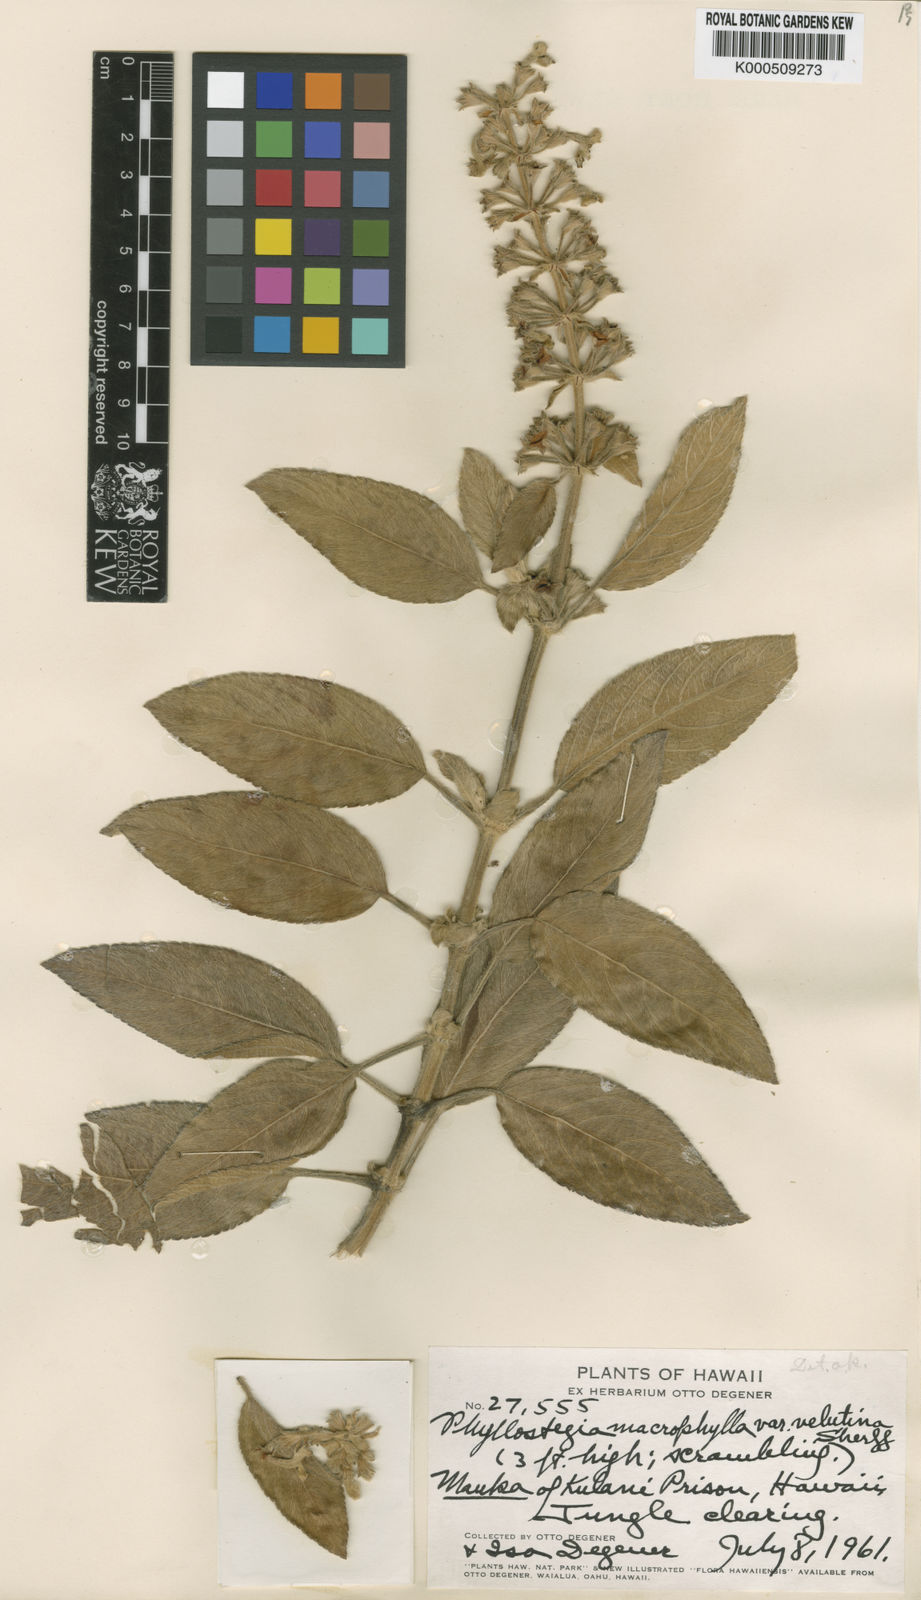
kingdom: Plantae
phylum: Tracheophyta
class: Magnoliopsida
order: Lamiales
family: Lamiaceae
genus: Phyllostegia
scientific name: Phyllostegia velutina
